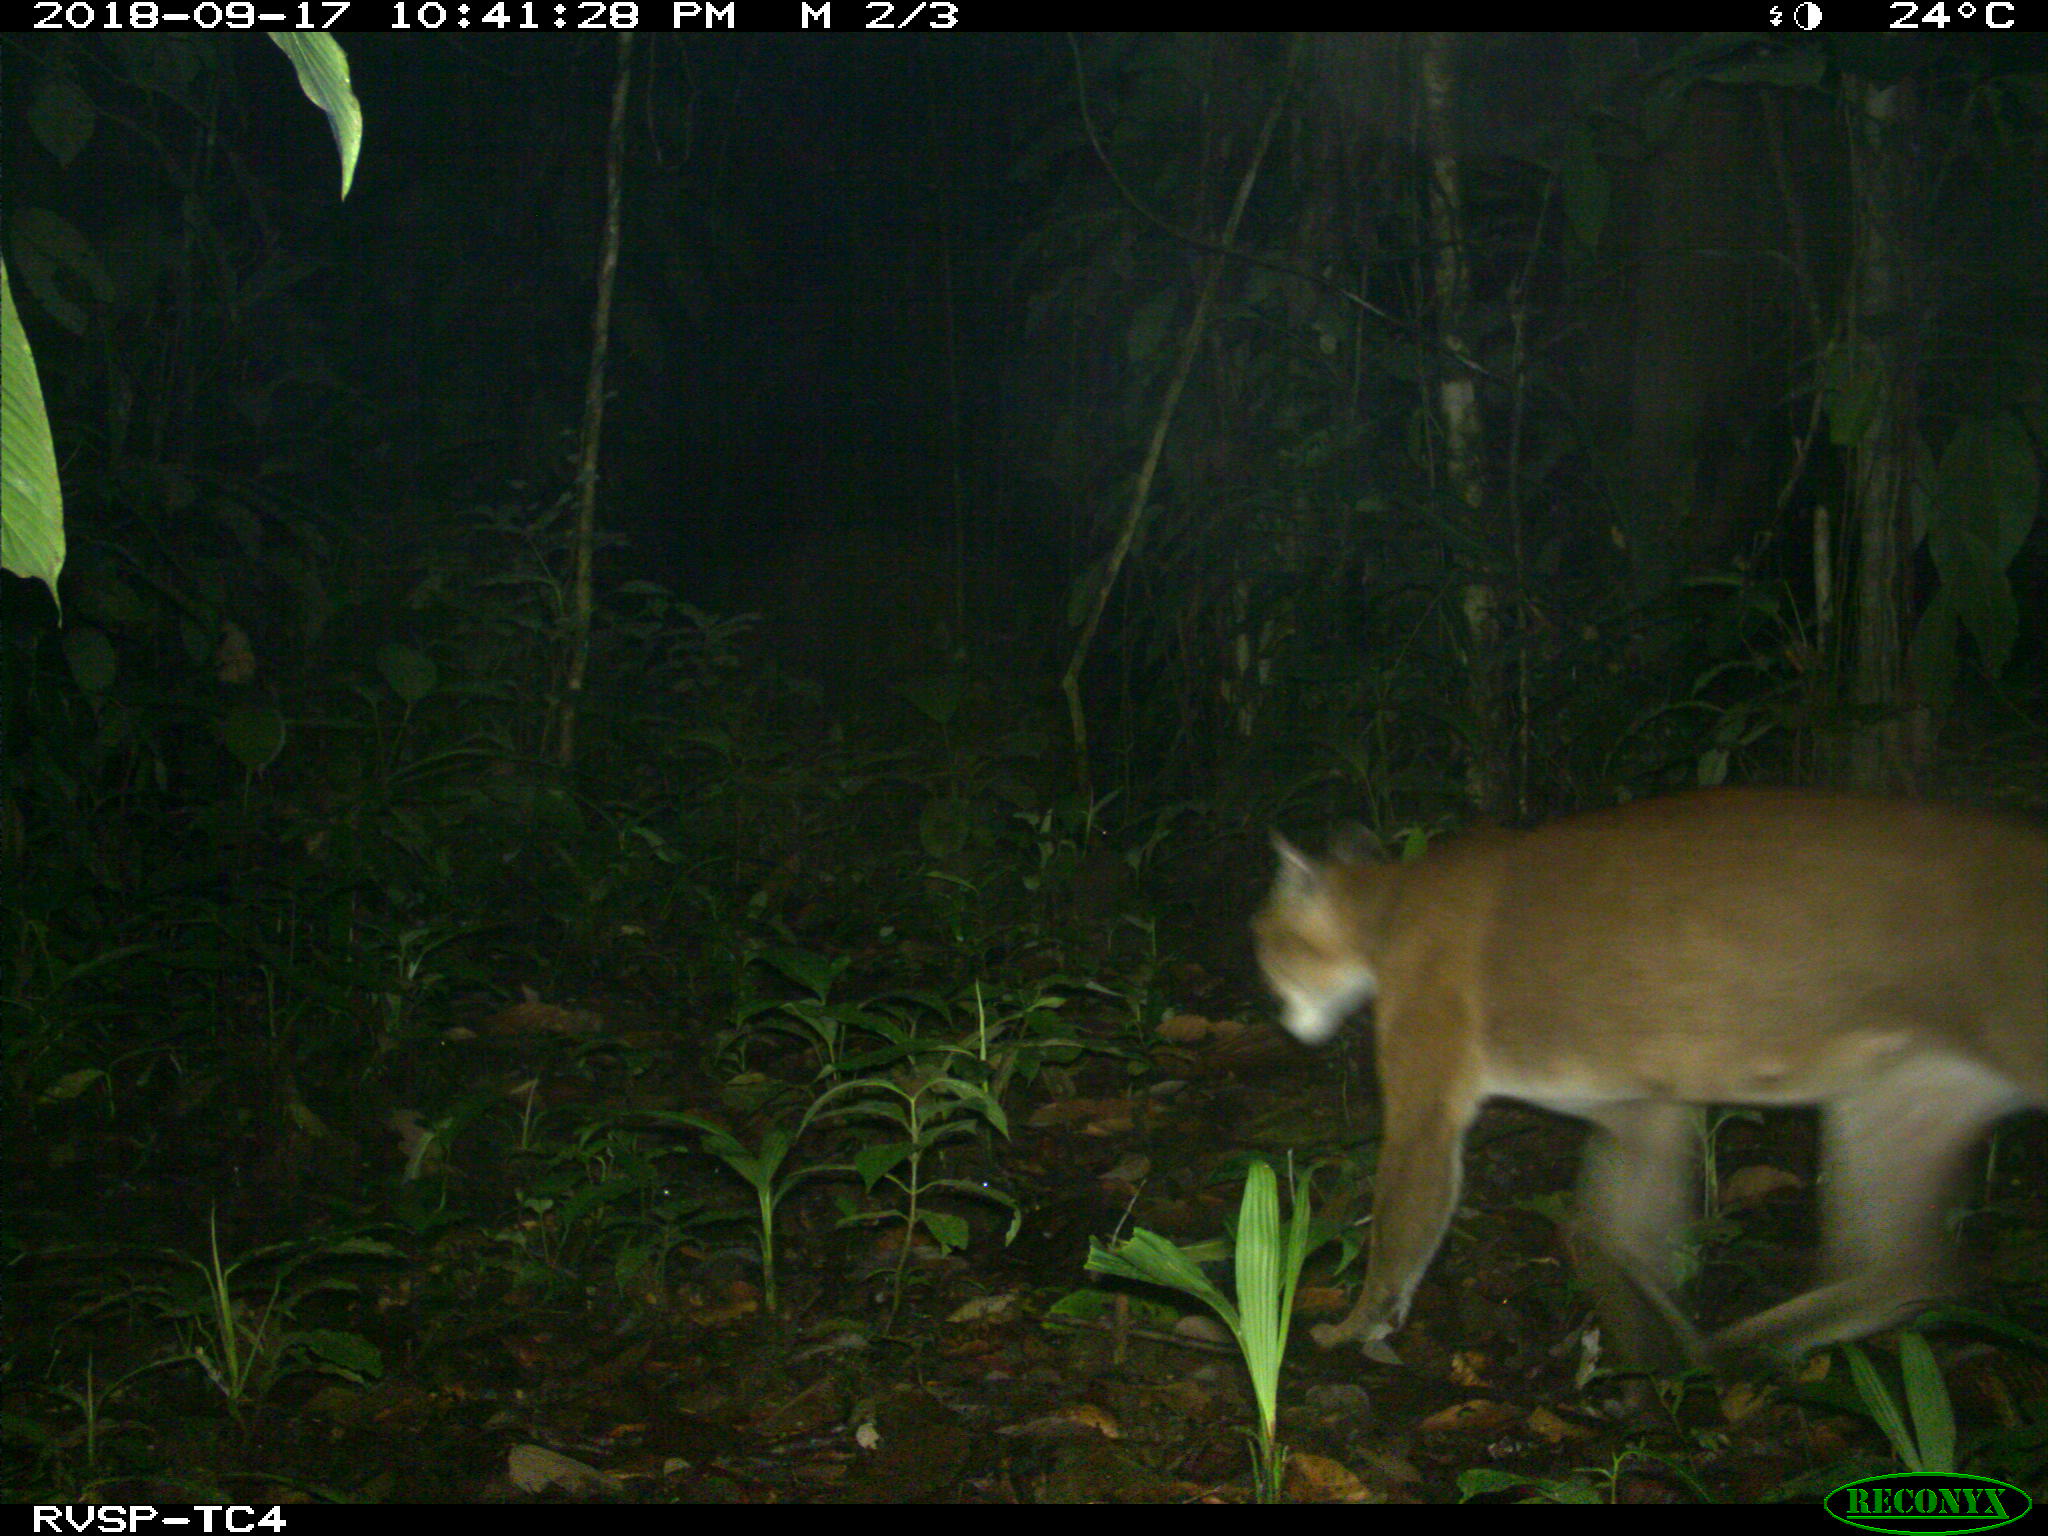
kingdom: Animalia
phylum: Chordata
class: Mammalia
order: Carnivora
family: Felidae
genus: Puma
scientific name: Puma concolor
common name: Puma
